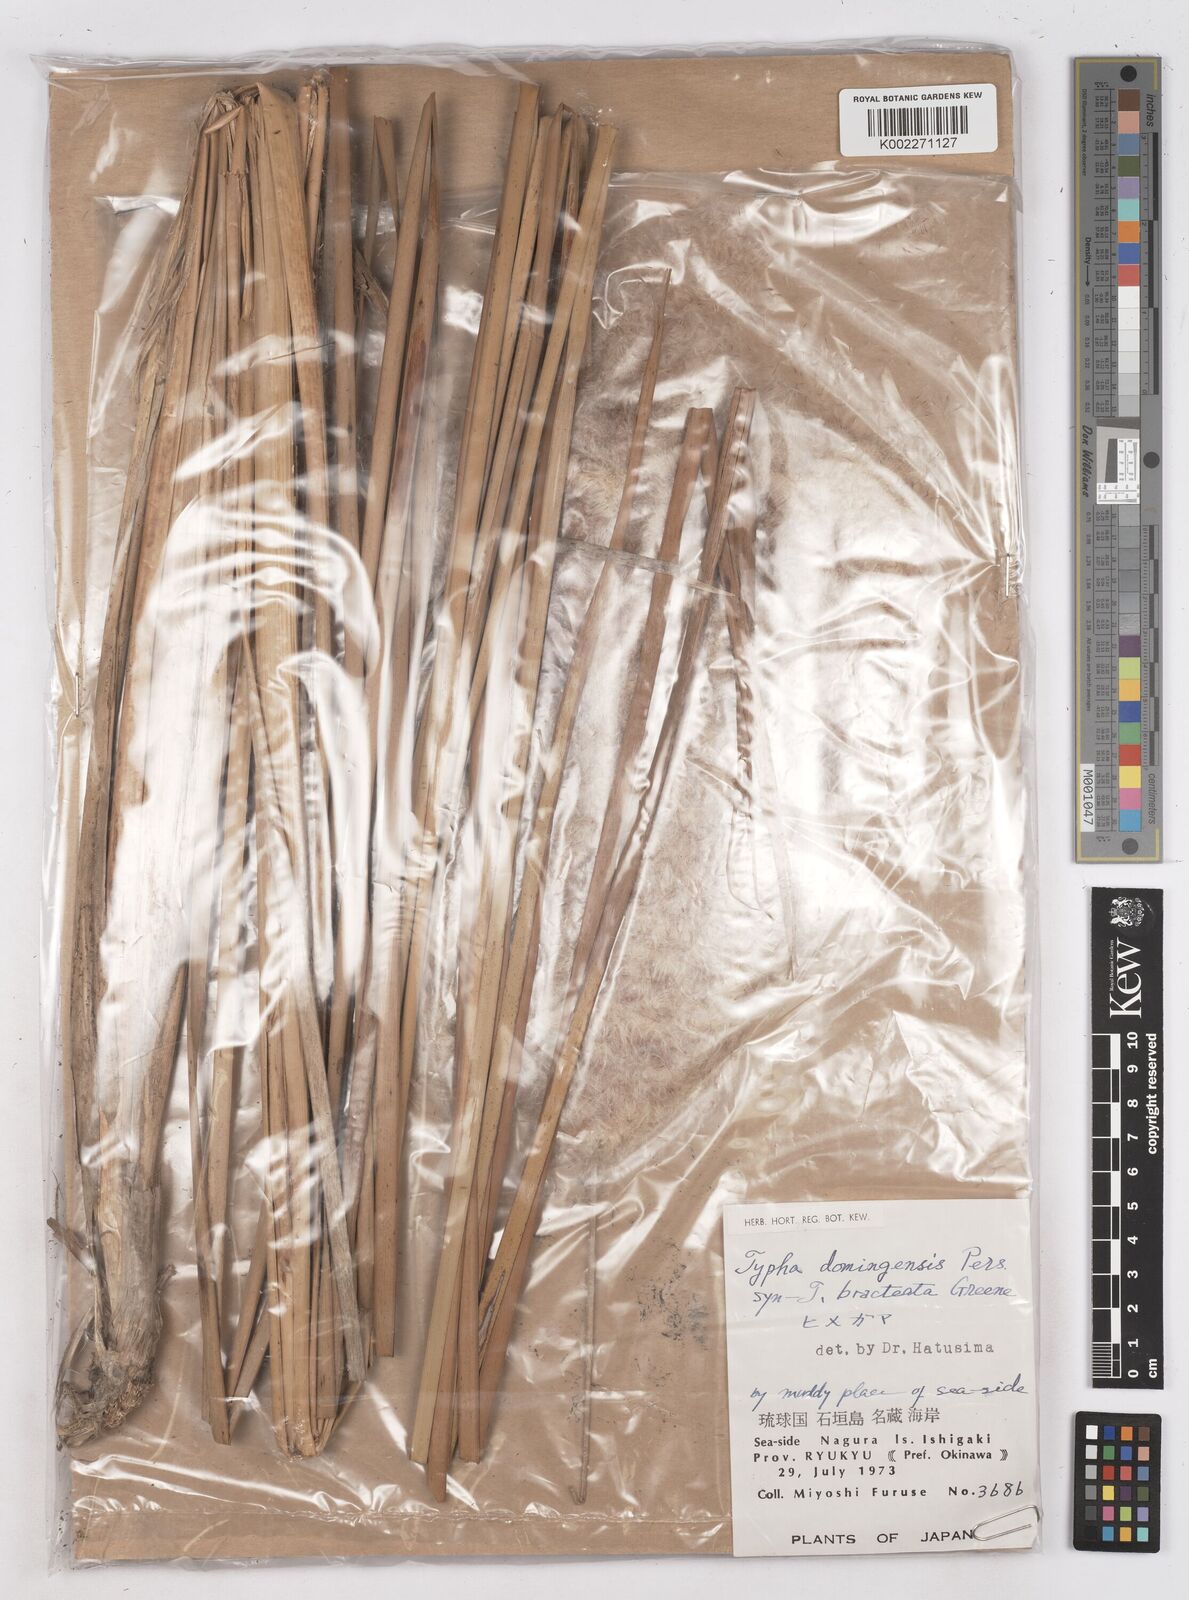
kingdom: Plantae
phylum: Tracheophyta
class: Liliopsida
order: Poales
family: Typhaceae
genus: Typha
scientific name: Typha domingensis
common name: Southern cattail
